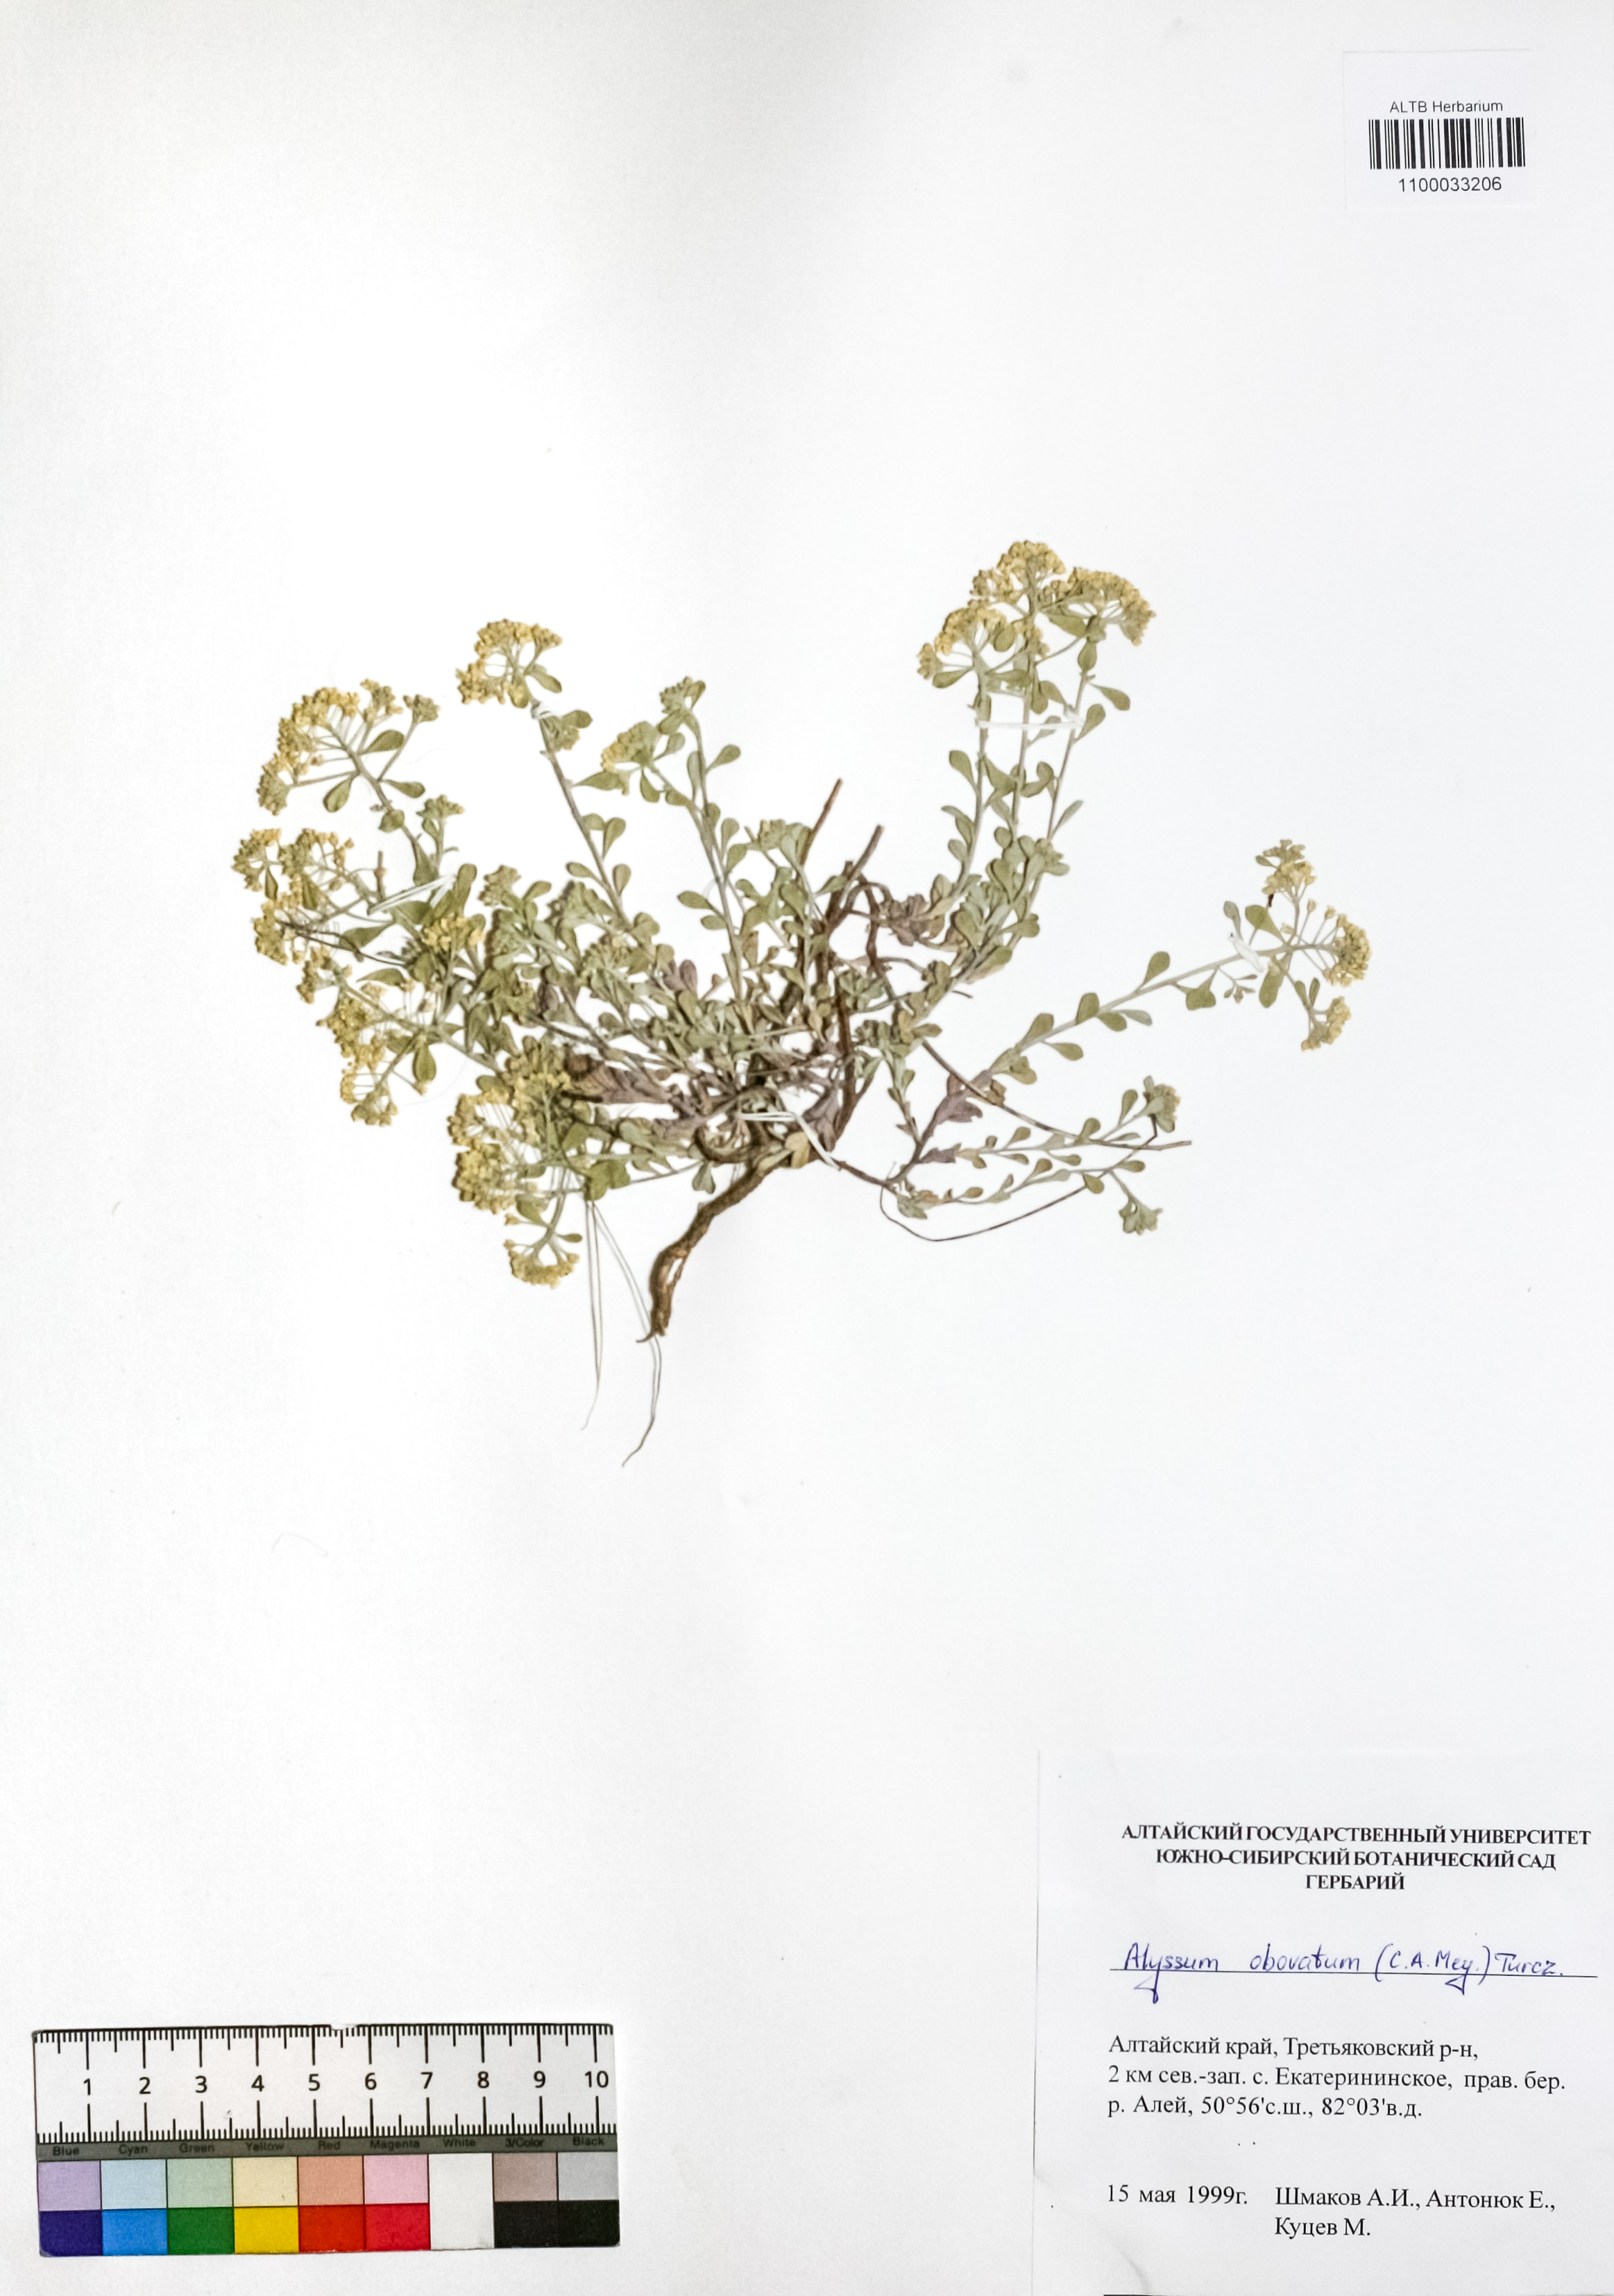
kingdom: Plantae
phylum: Tracheophyta
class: Magnoliopsida
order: Brassicales
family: Brassicaceae
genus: Odontarrhena
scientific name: Odontarrhena obovata
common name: American alyssum
